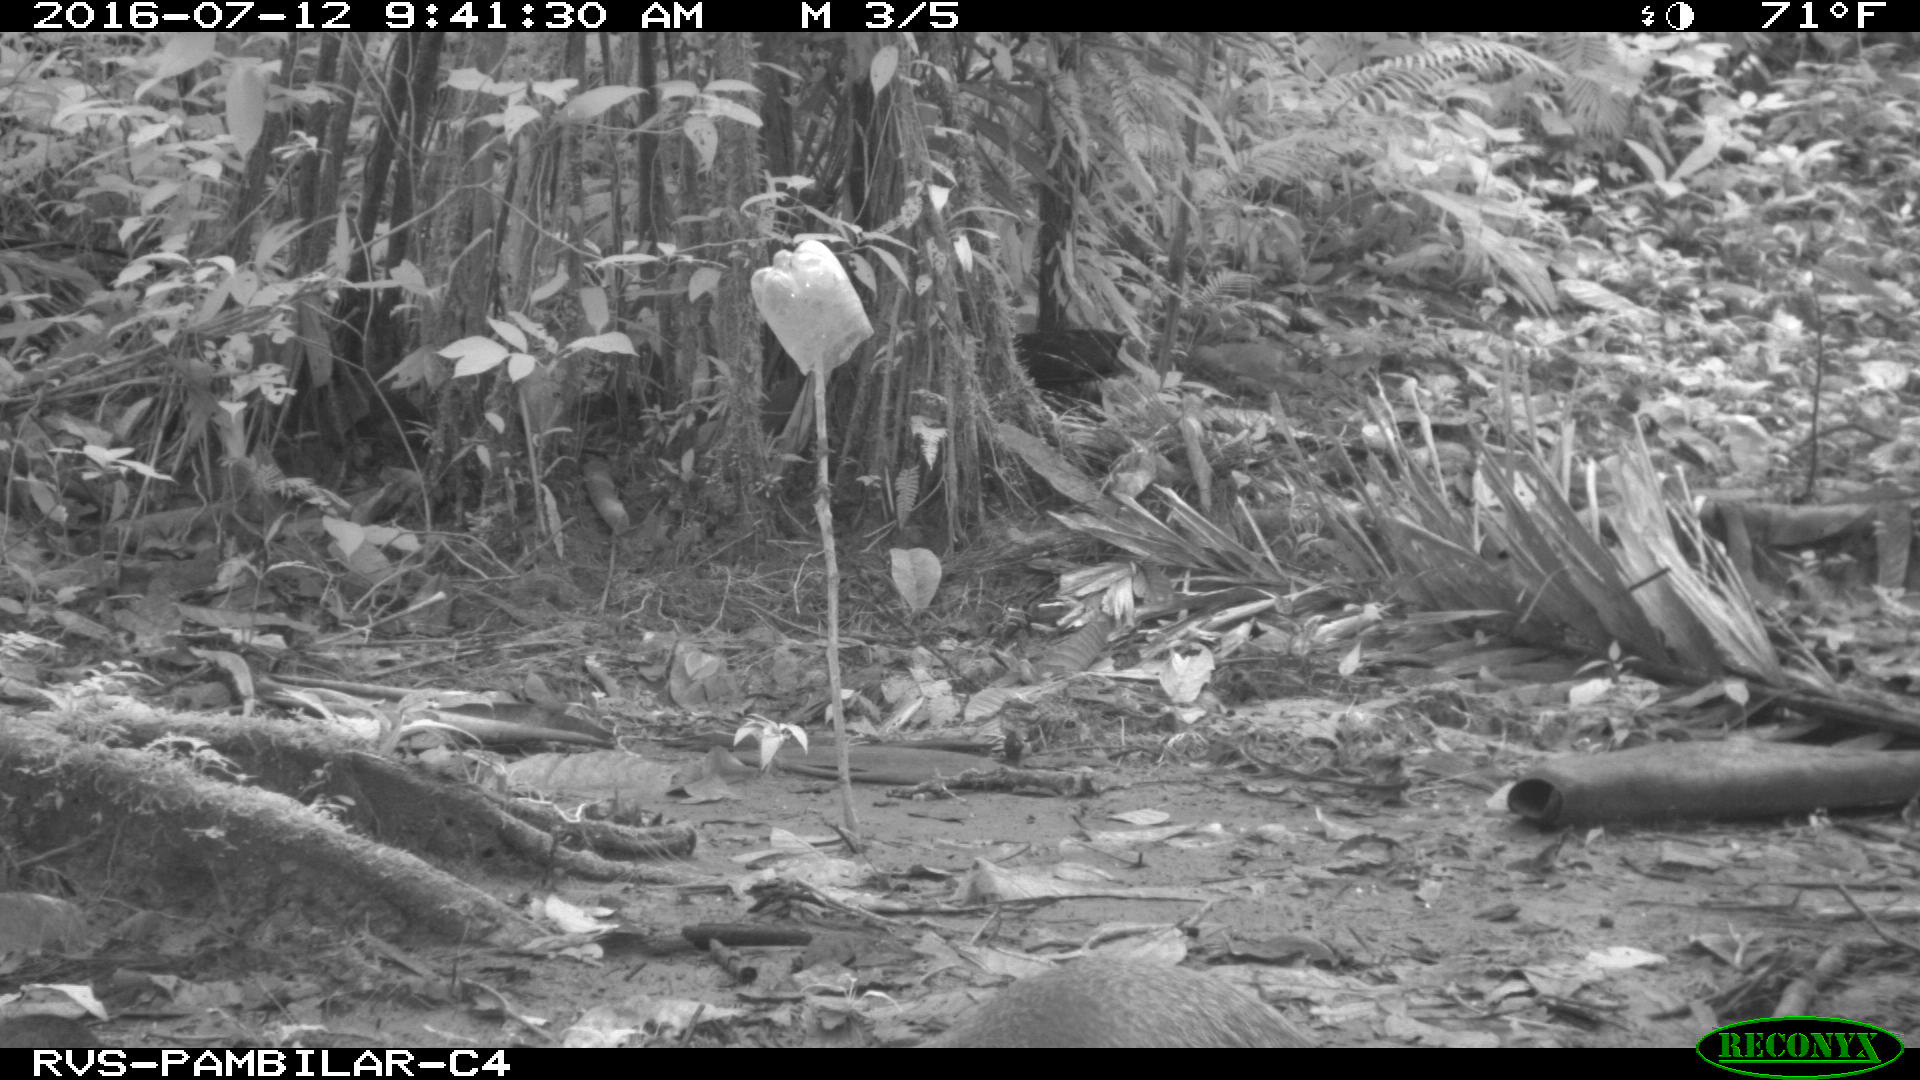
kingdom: Animalia
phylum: Chordata
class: Mammalia
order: Rodentia
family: Dasyproctidae
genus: Dasyprocta
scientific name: Dasyprocta punctata
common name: Central american agouti
